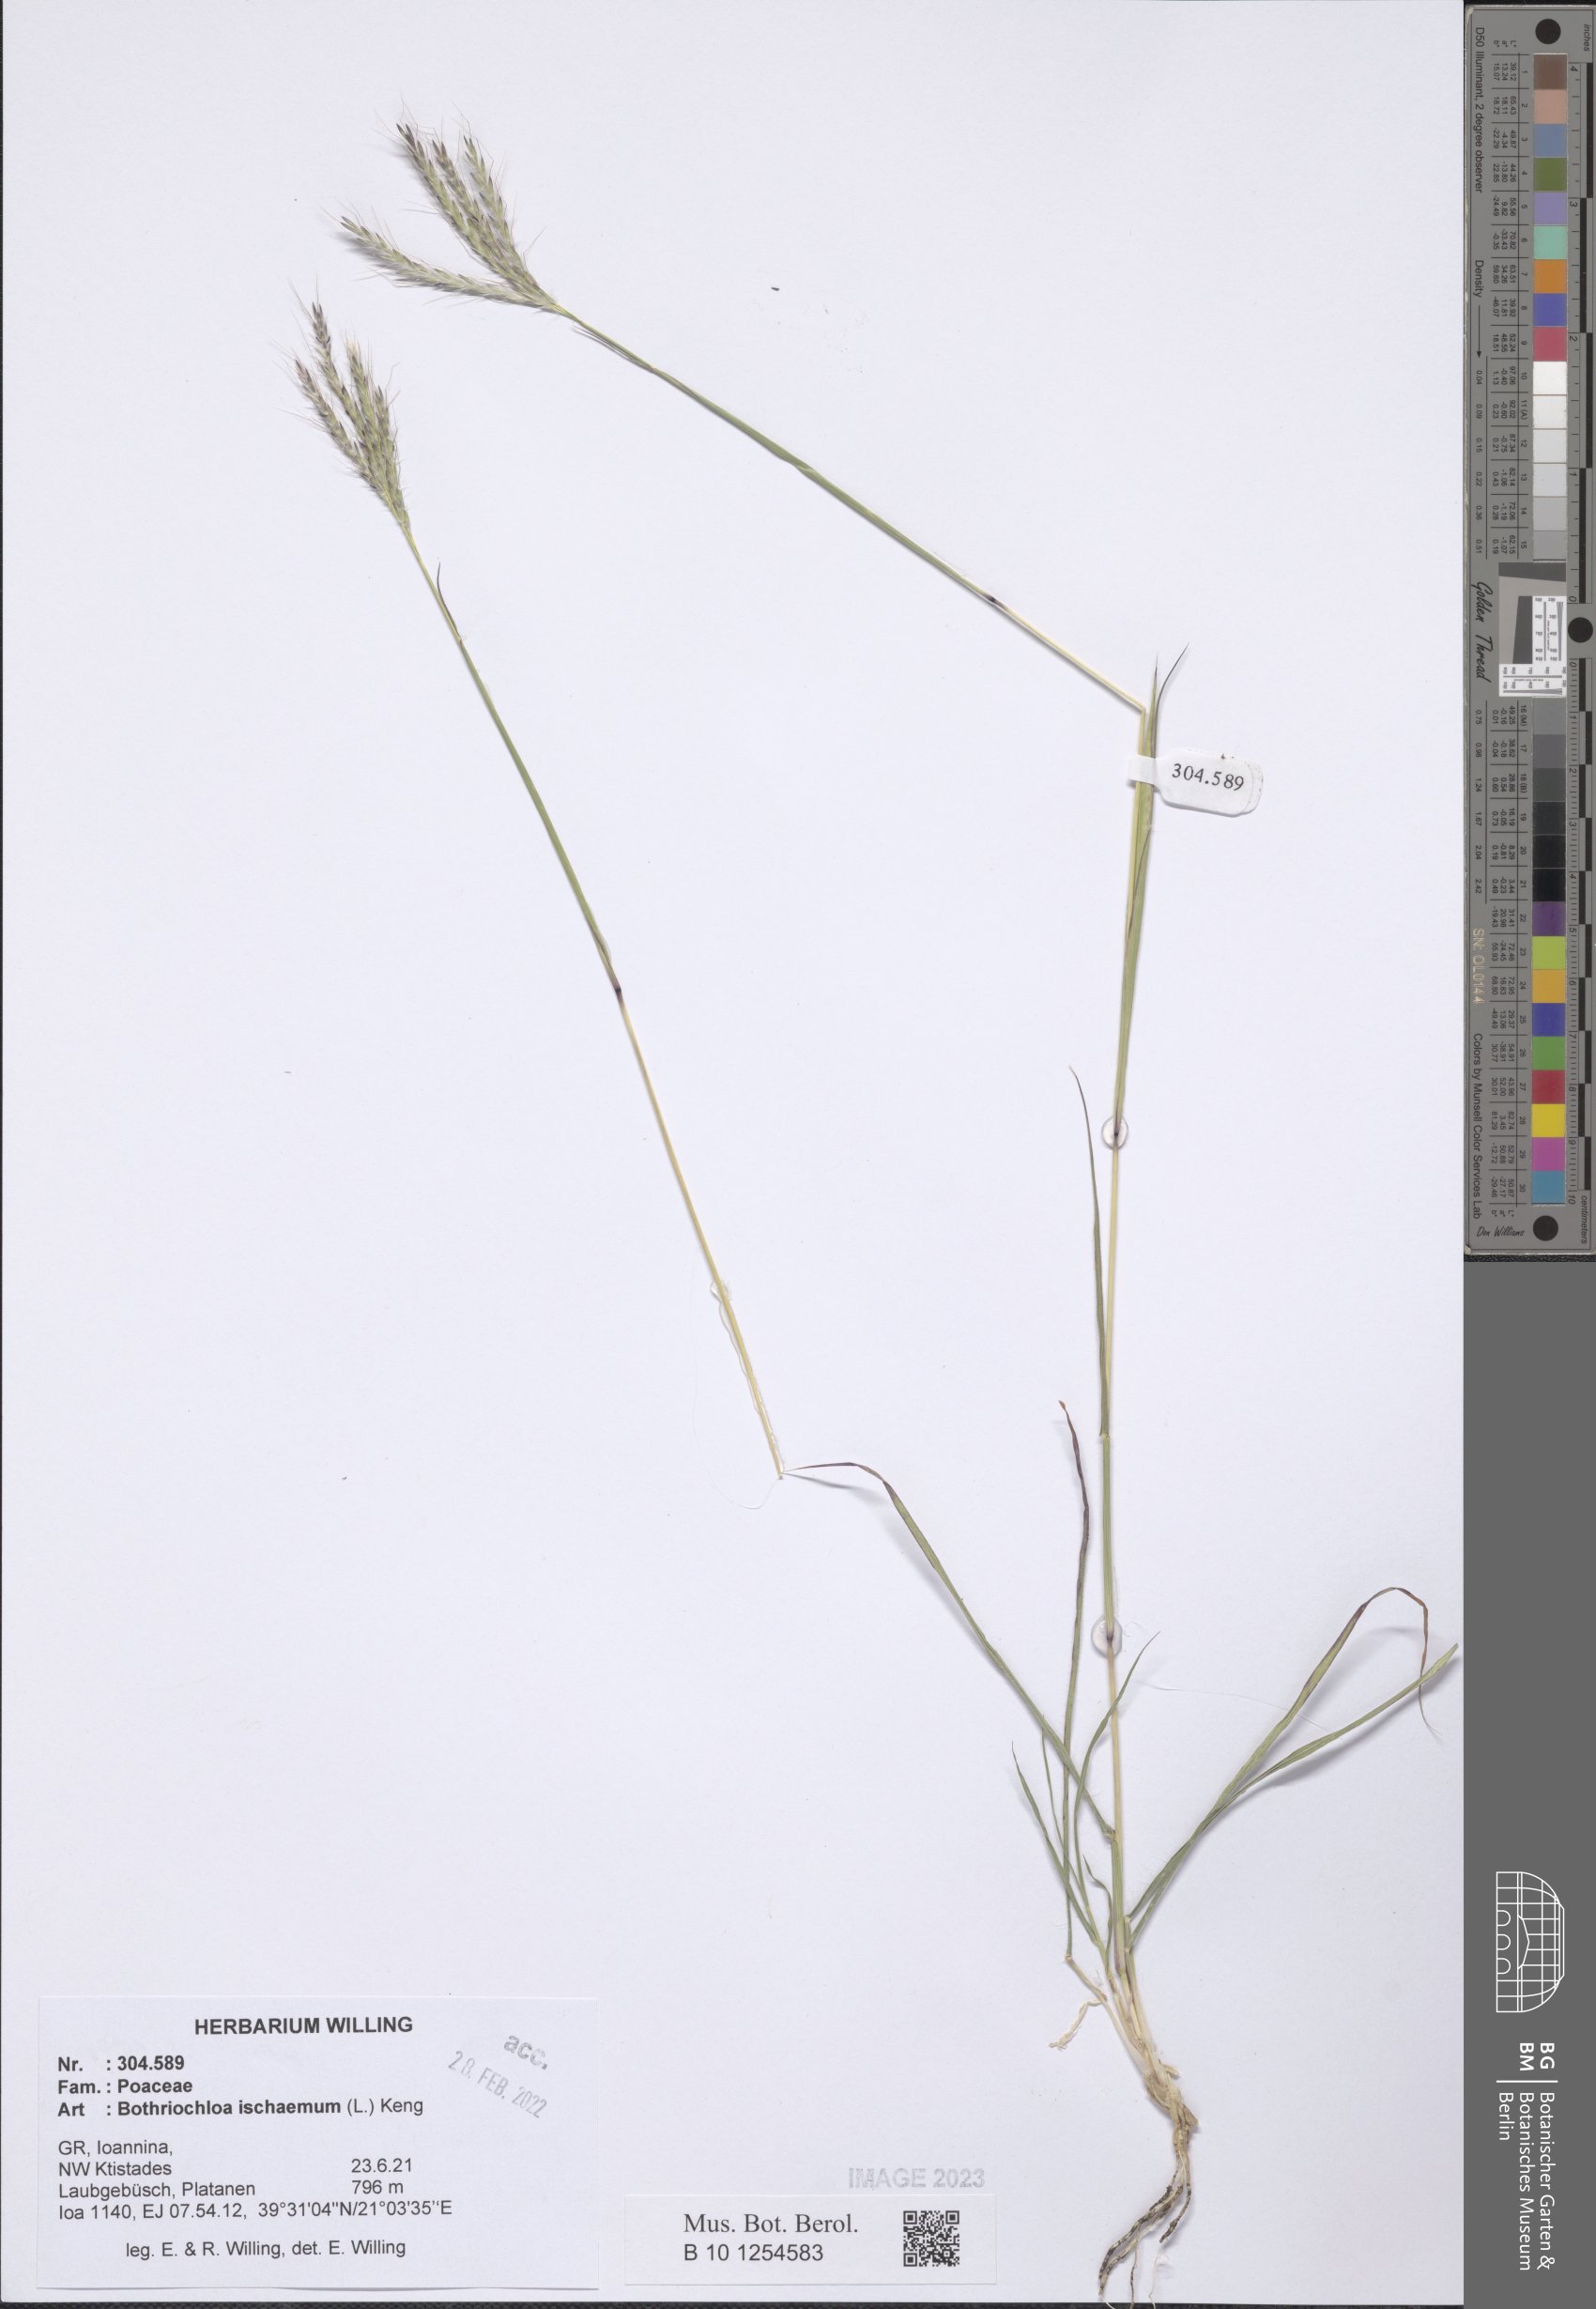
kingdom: Plantae
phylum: Tracheophyta
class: Liliopsida
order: Poales
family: Poaceae
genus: Bothriochloa
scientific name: Bothriochloa ischaemum
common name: Yellow bluestem
